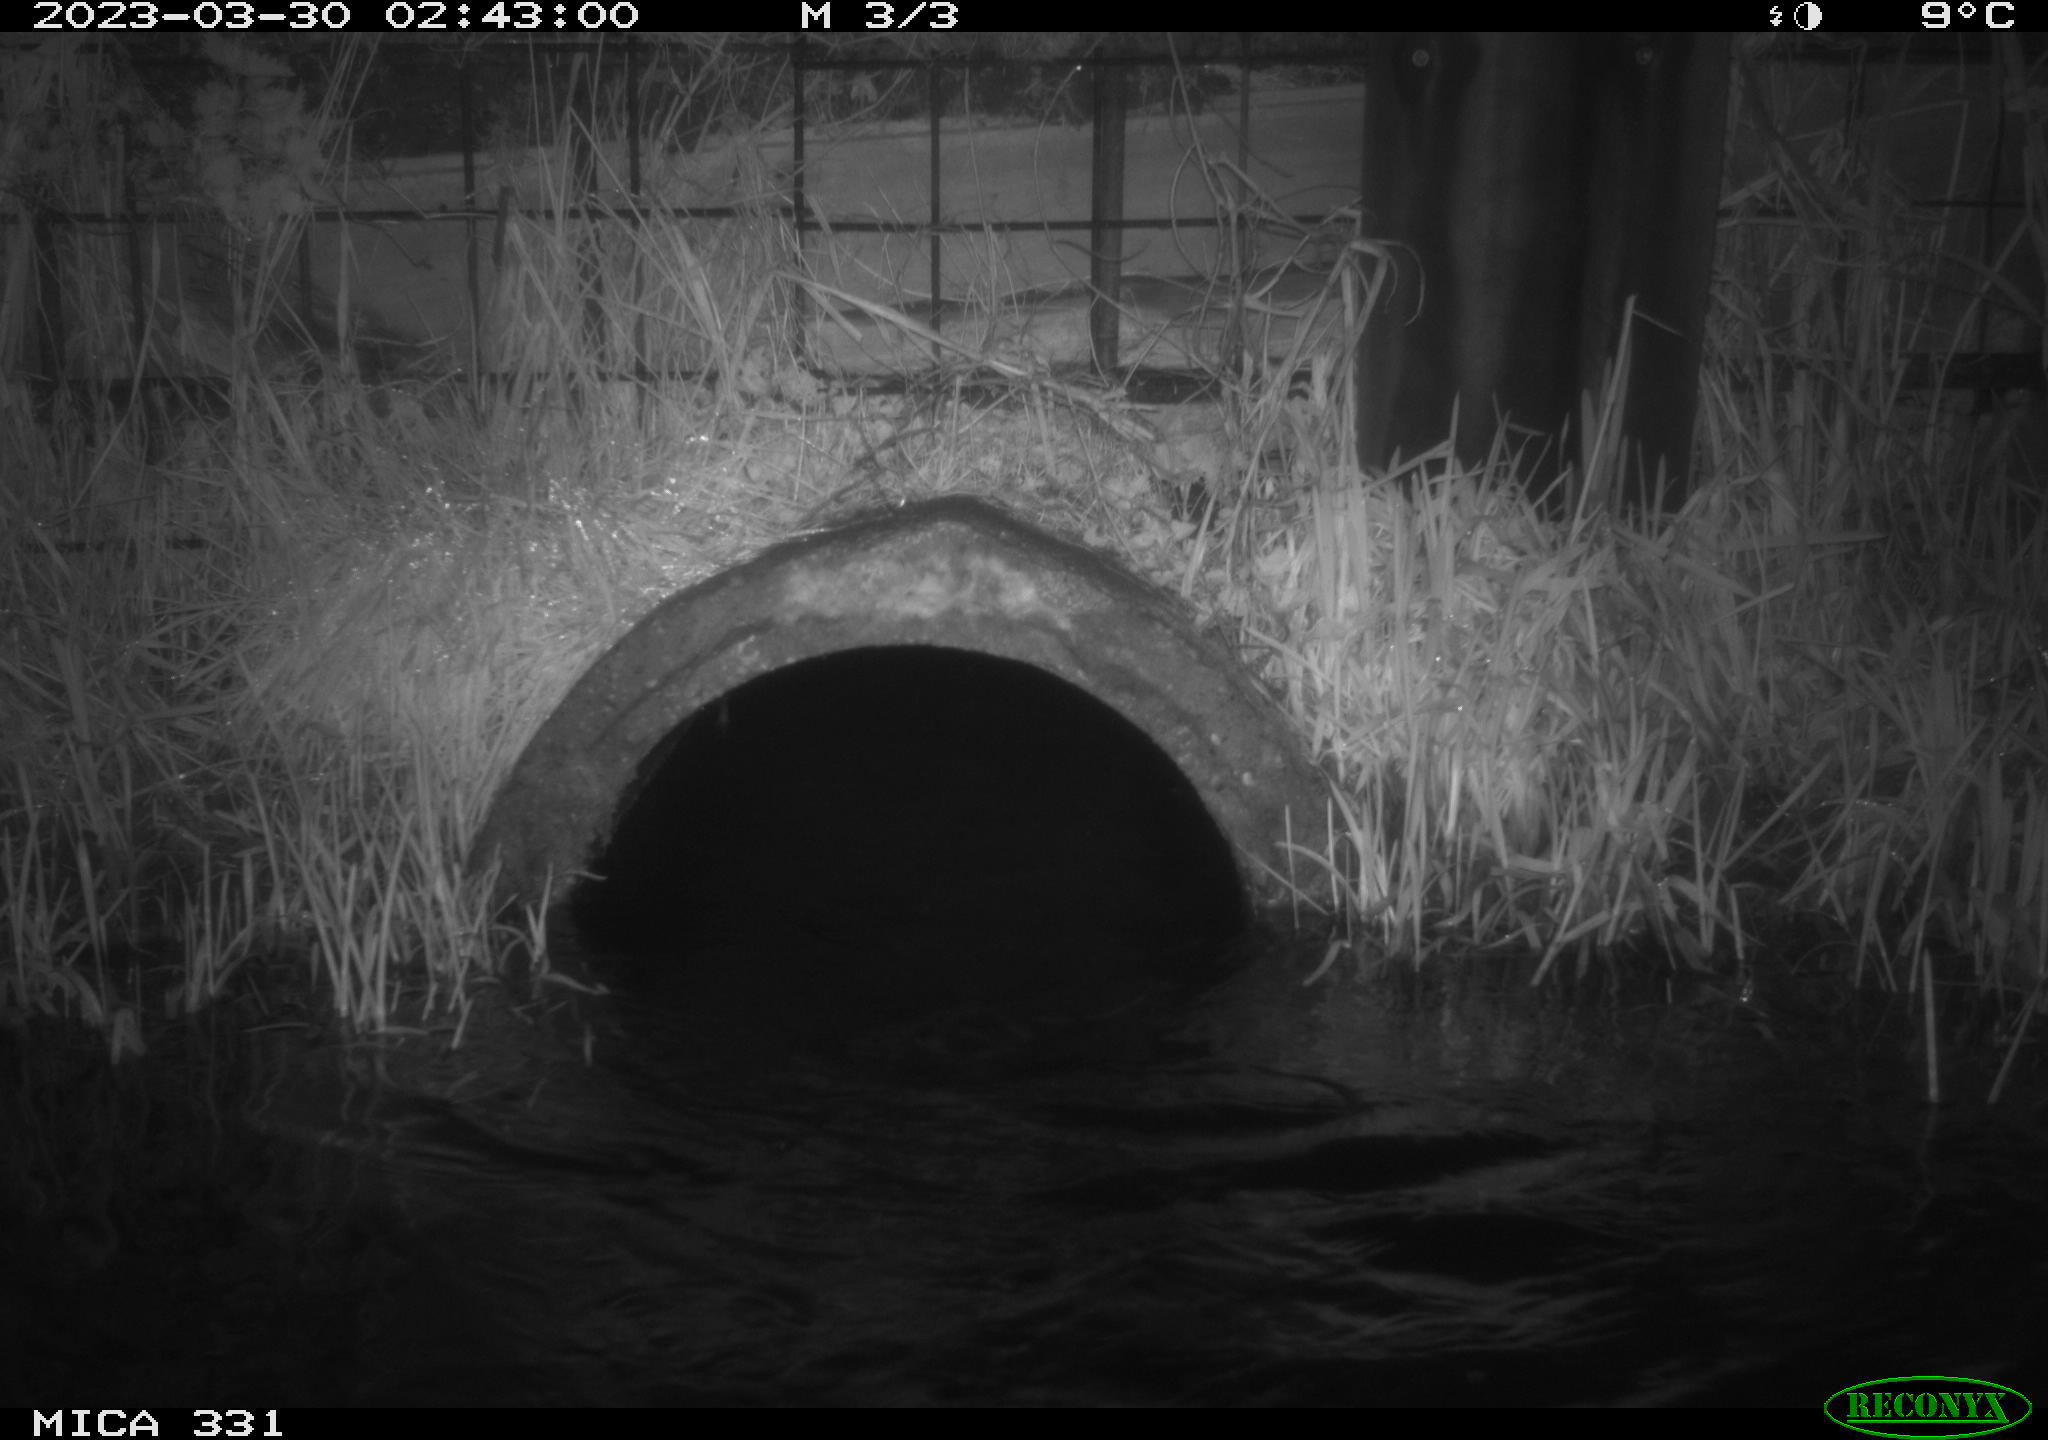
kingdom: Animalia
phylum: Chordata
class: Mammalia
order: Carnivora
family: Canidae
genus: Vulpes
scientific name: Vulpes vulpes
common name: Red fox
